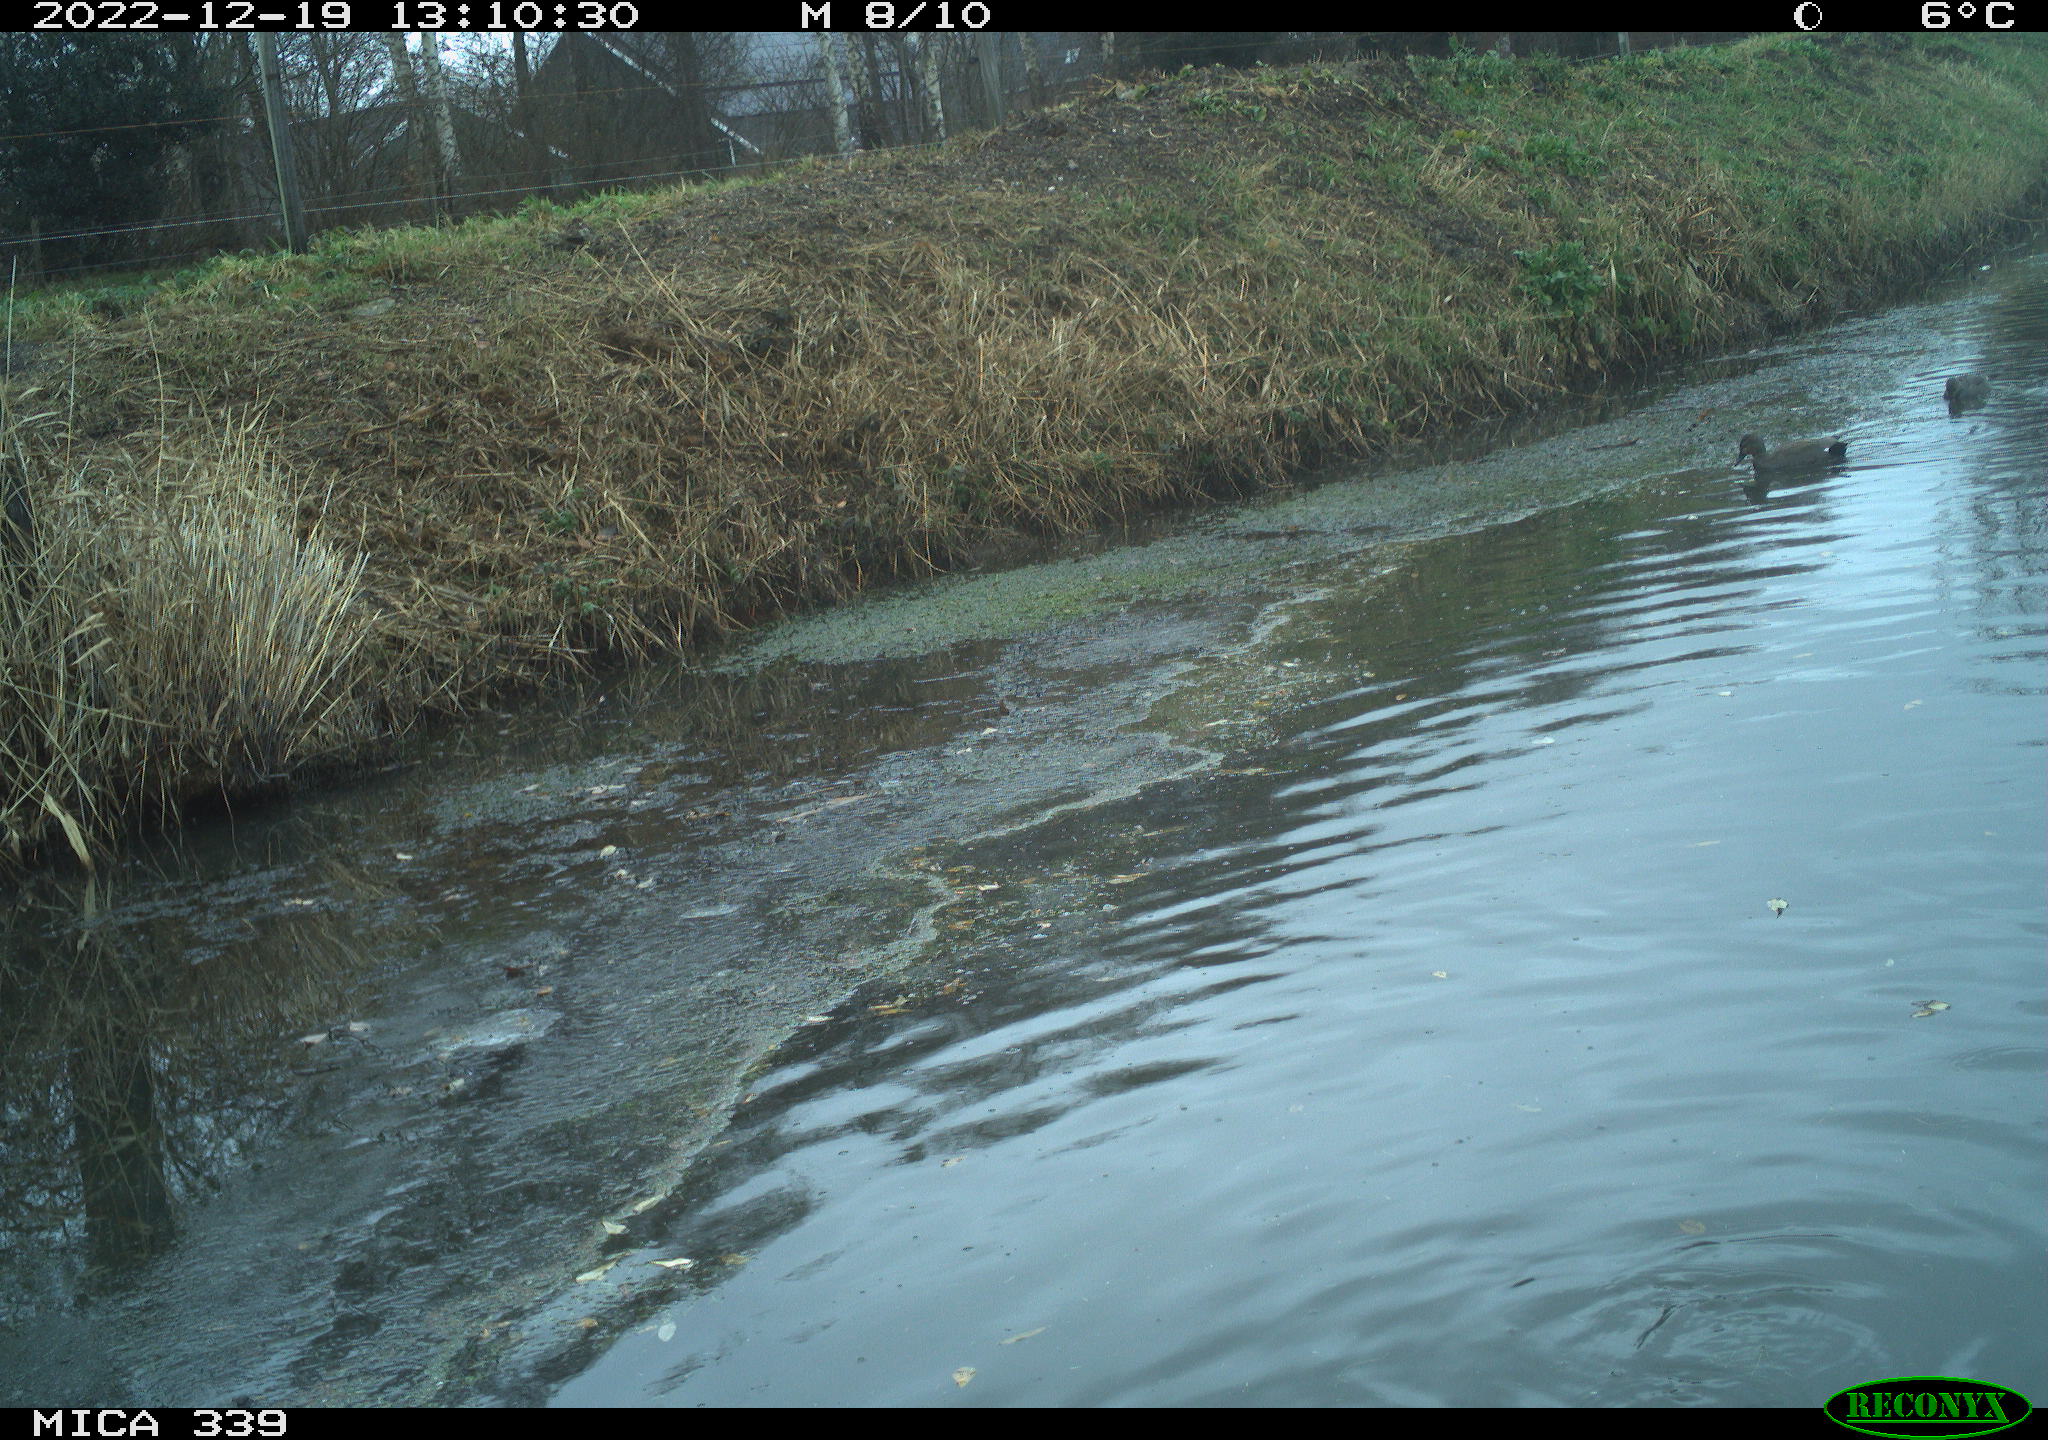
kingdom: Animalia
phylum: Chordata
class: Aves
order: Anseriformes
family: Anatidae
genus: Anas
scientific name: Anas
